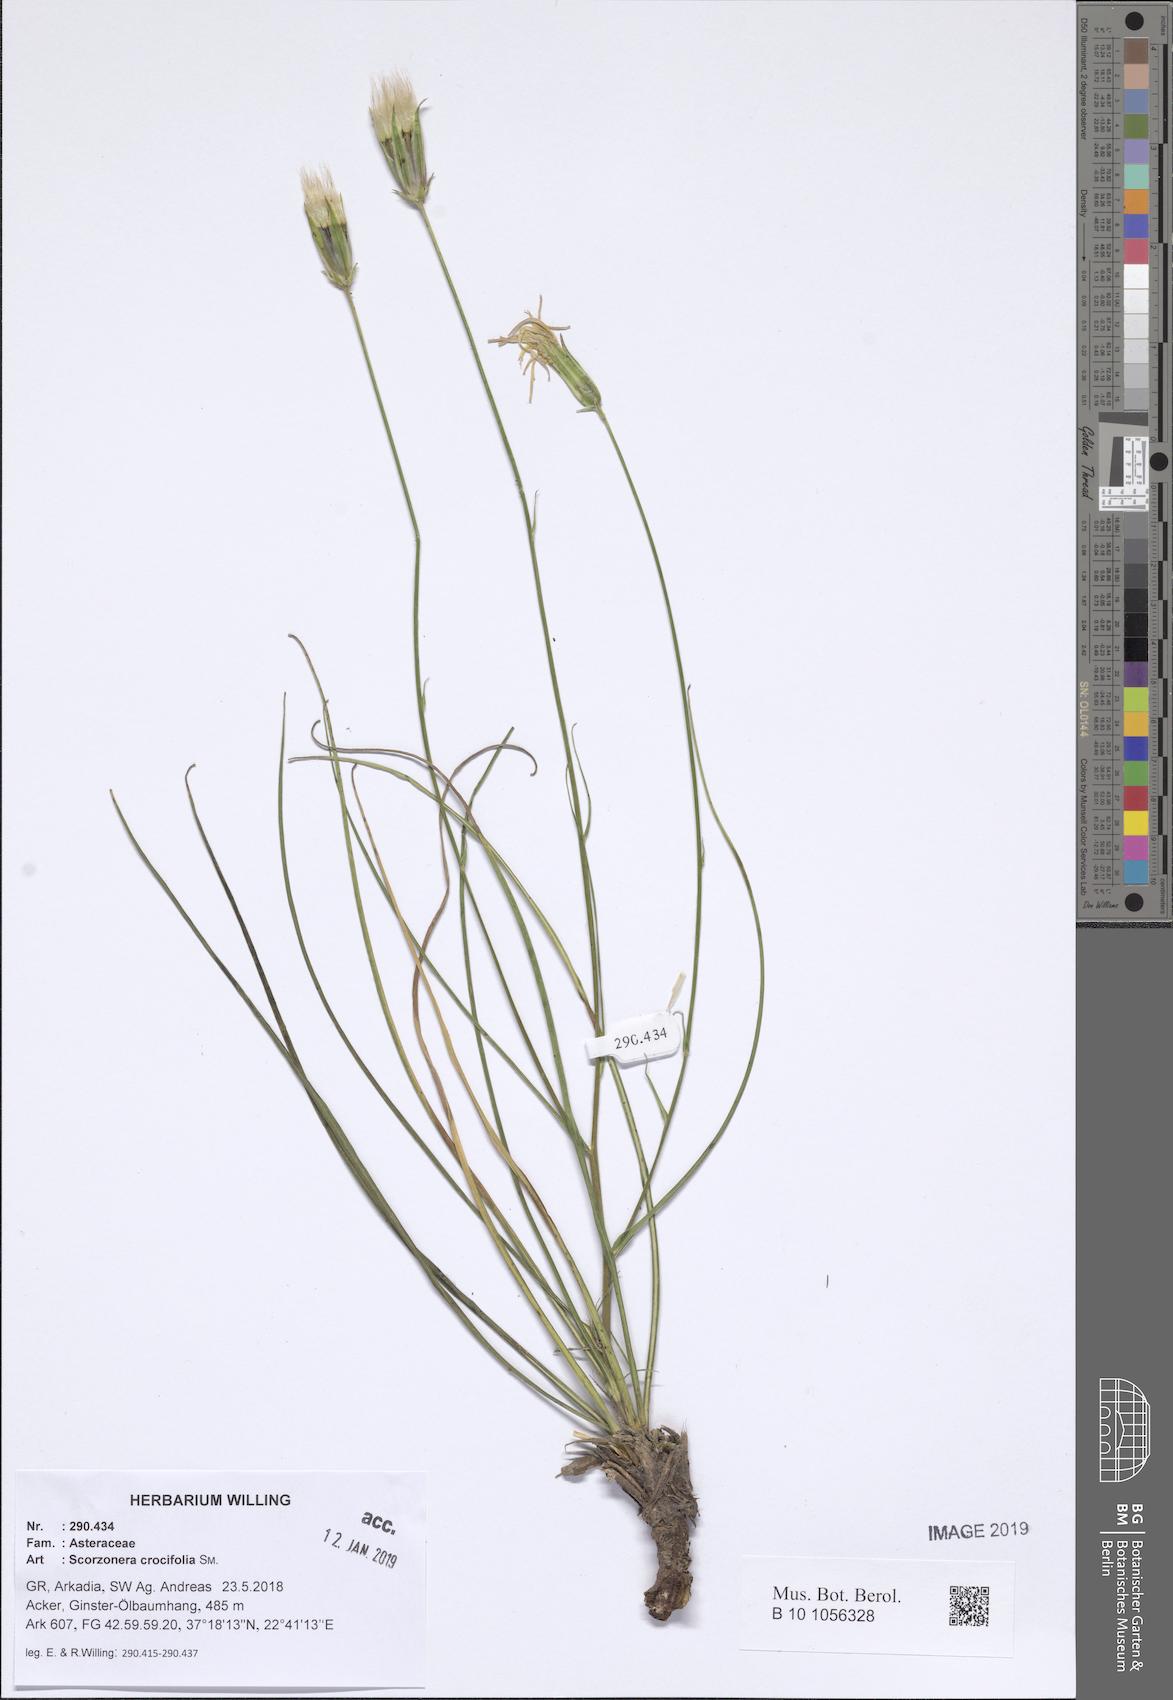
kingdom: Plantae
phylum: Tracheophyta
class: Magnoliopsida
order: Asterales
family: Asteraceae
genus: Pseudopodospermum
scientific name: Pseudopodospermum crocifolium
